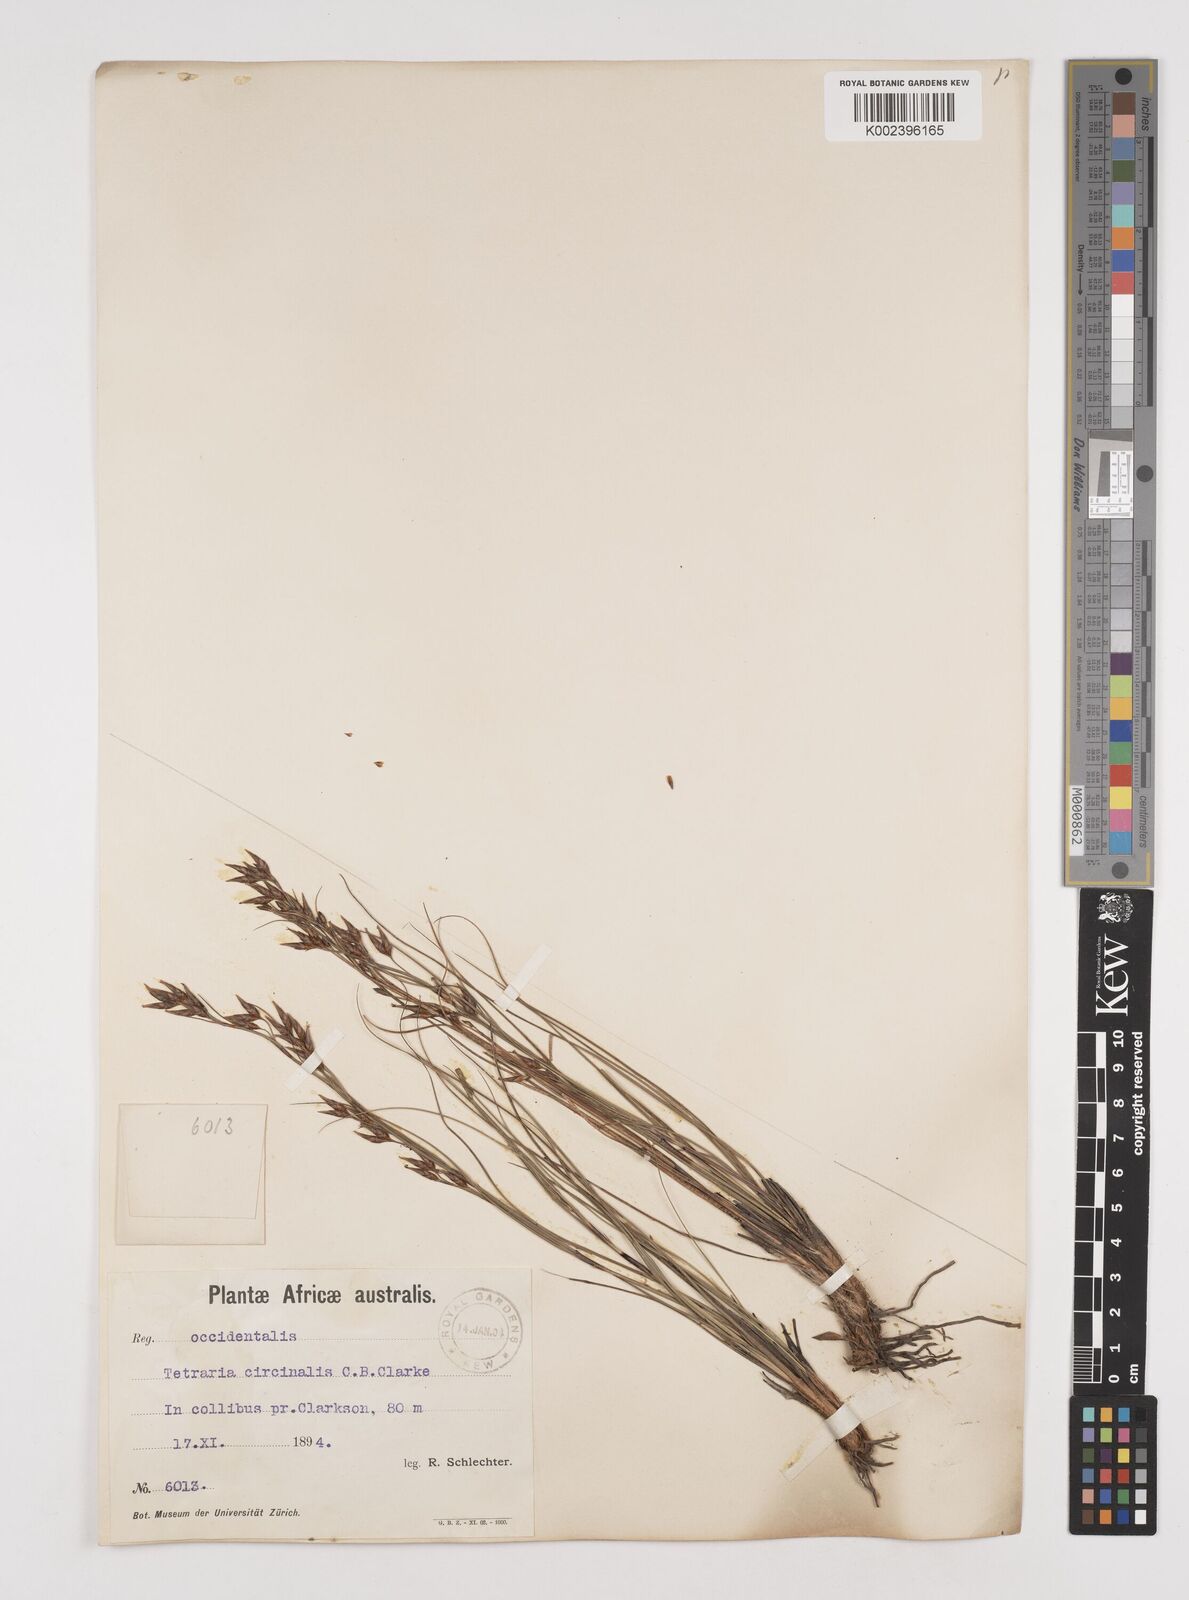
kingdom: Plantae
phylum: Tracheophyta
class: Liliopsida
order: Poales
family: Cyperaceae
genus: Tetraria
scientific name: Tetraria microstachys
